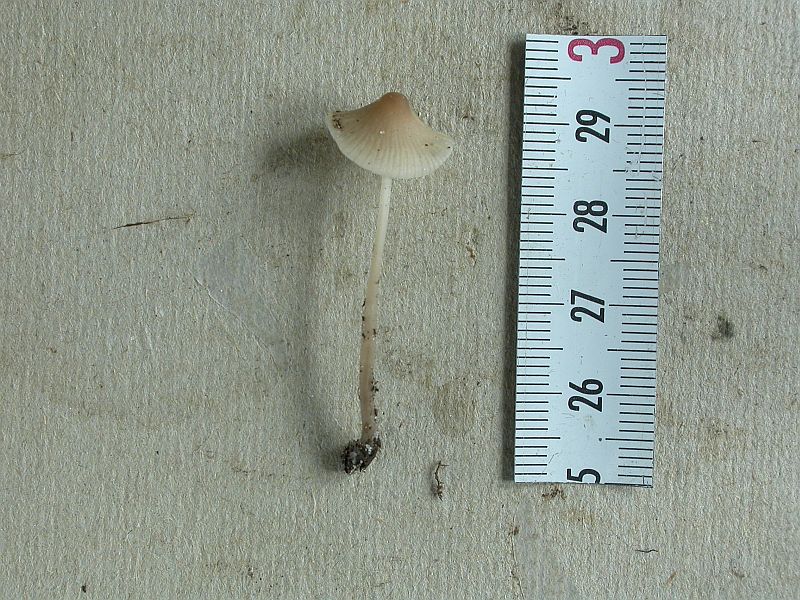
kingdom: Fungi
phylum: Basidiomycota
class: Agaricomycetes
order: Agaricales
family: Mycenaceae
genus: Mycena
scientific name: Mycena filopes
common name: jod-huesvamp
